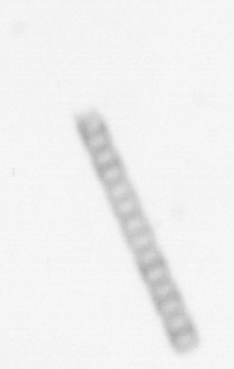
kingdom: Chromista
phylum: Ochrophyta
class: Bacillariophyceae
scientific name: Bacillariophyceae
